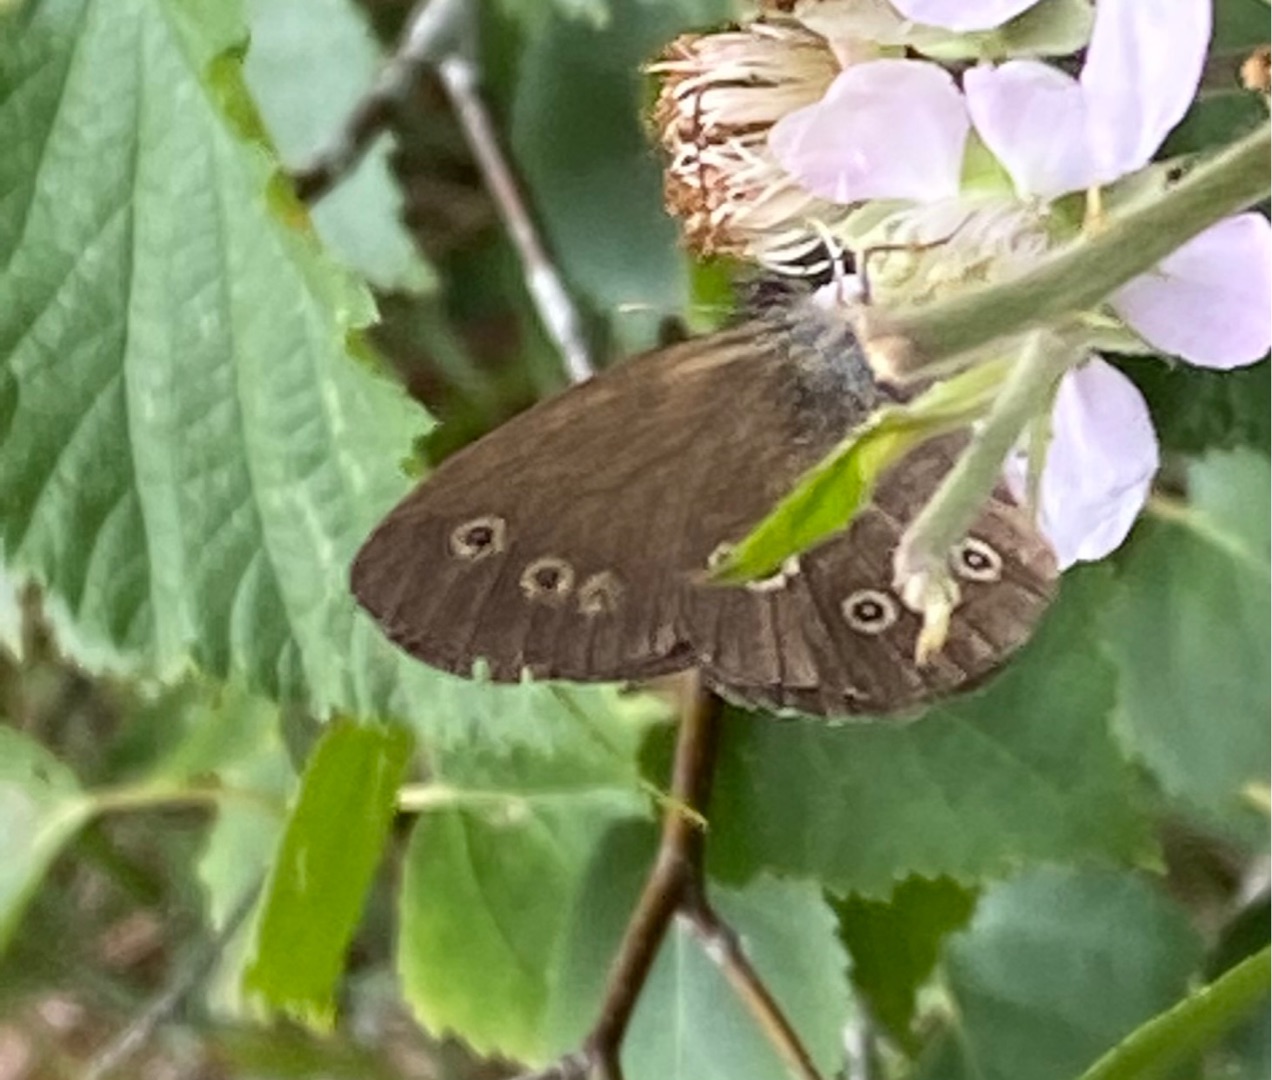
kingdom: Animalia
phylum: Arthropoda
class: Insecta
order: Lepidoptera
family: Nymphalidae
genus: Aphantopus
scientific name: Aphantopus hyperantus
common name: Engrandøje
